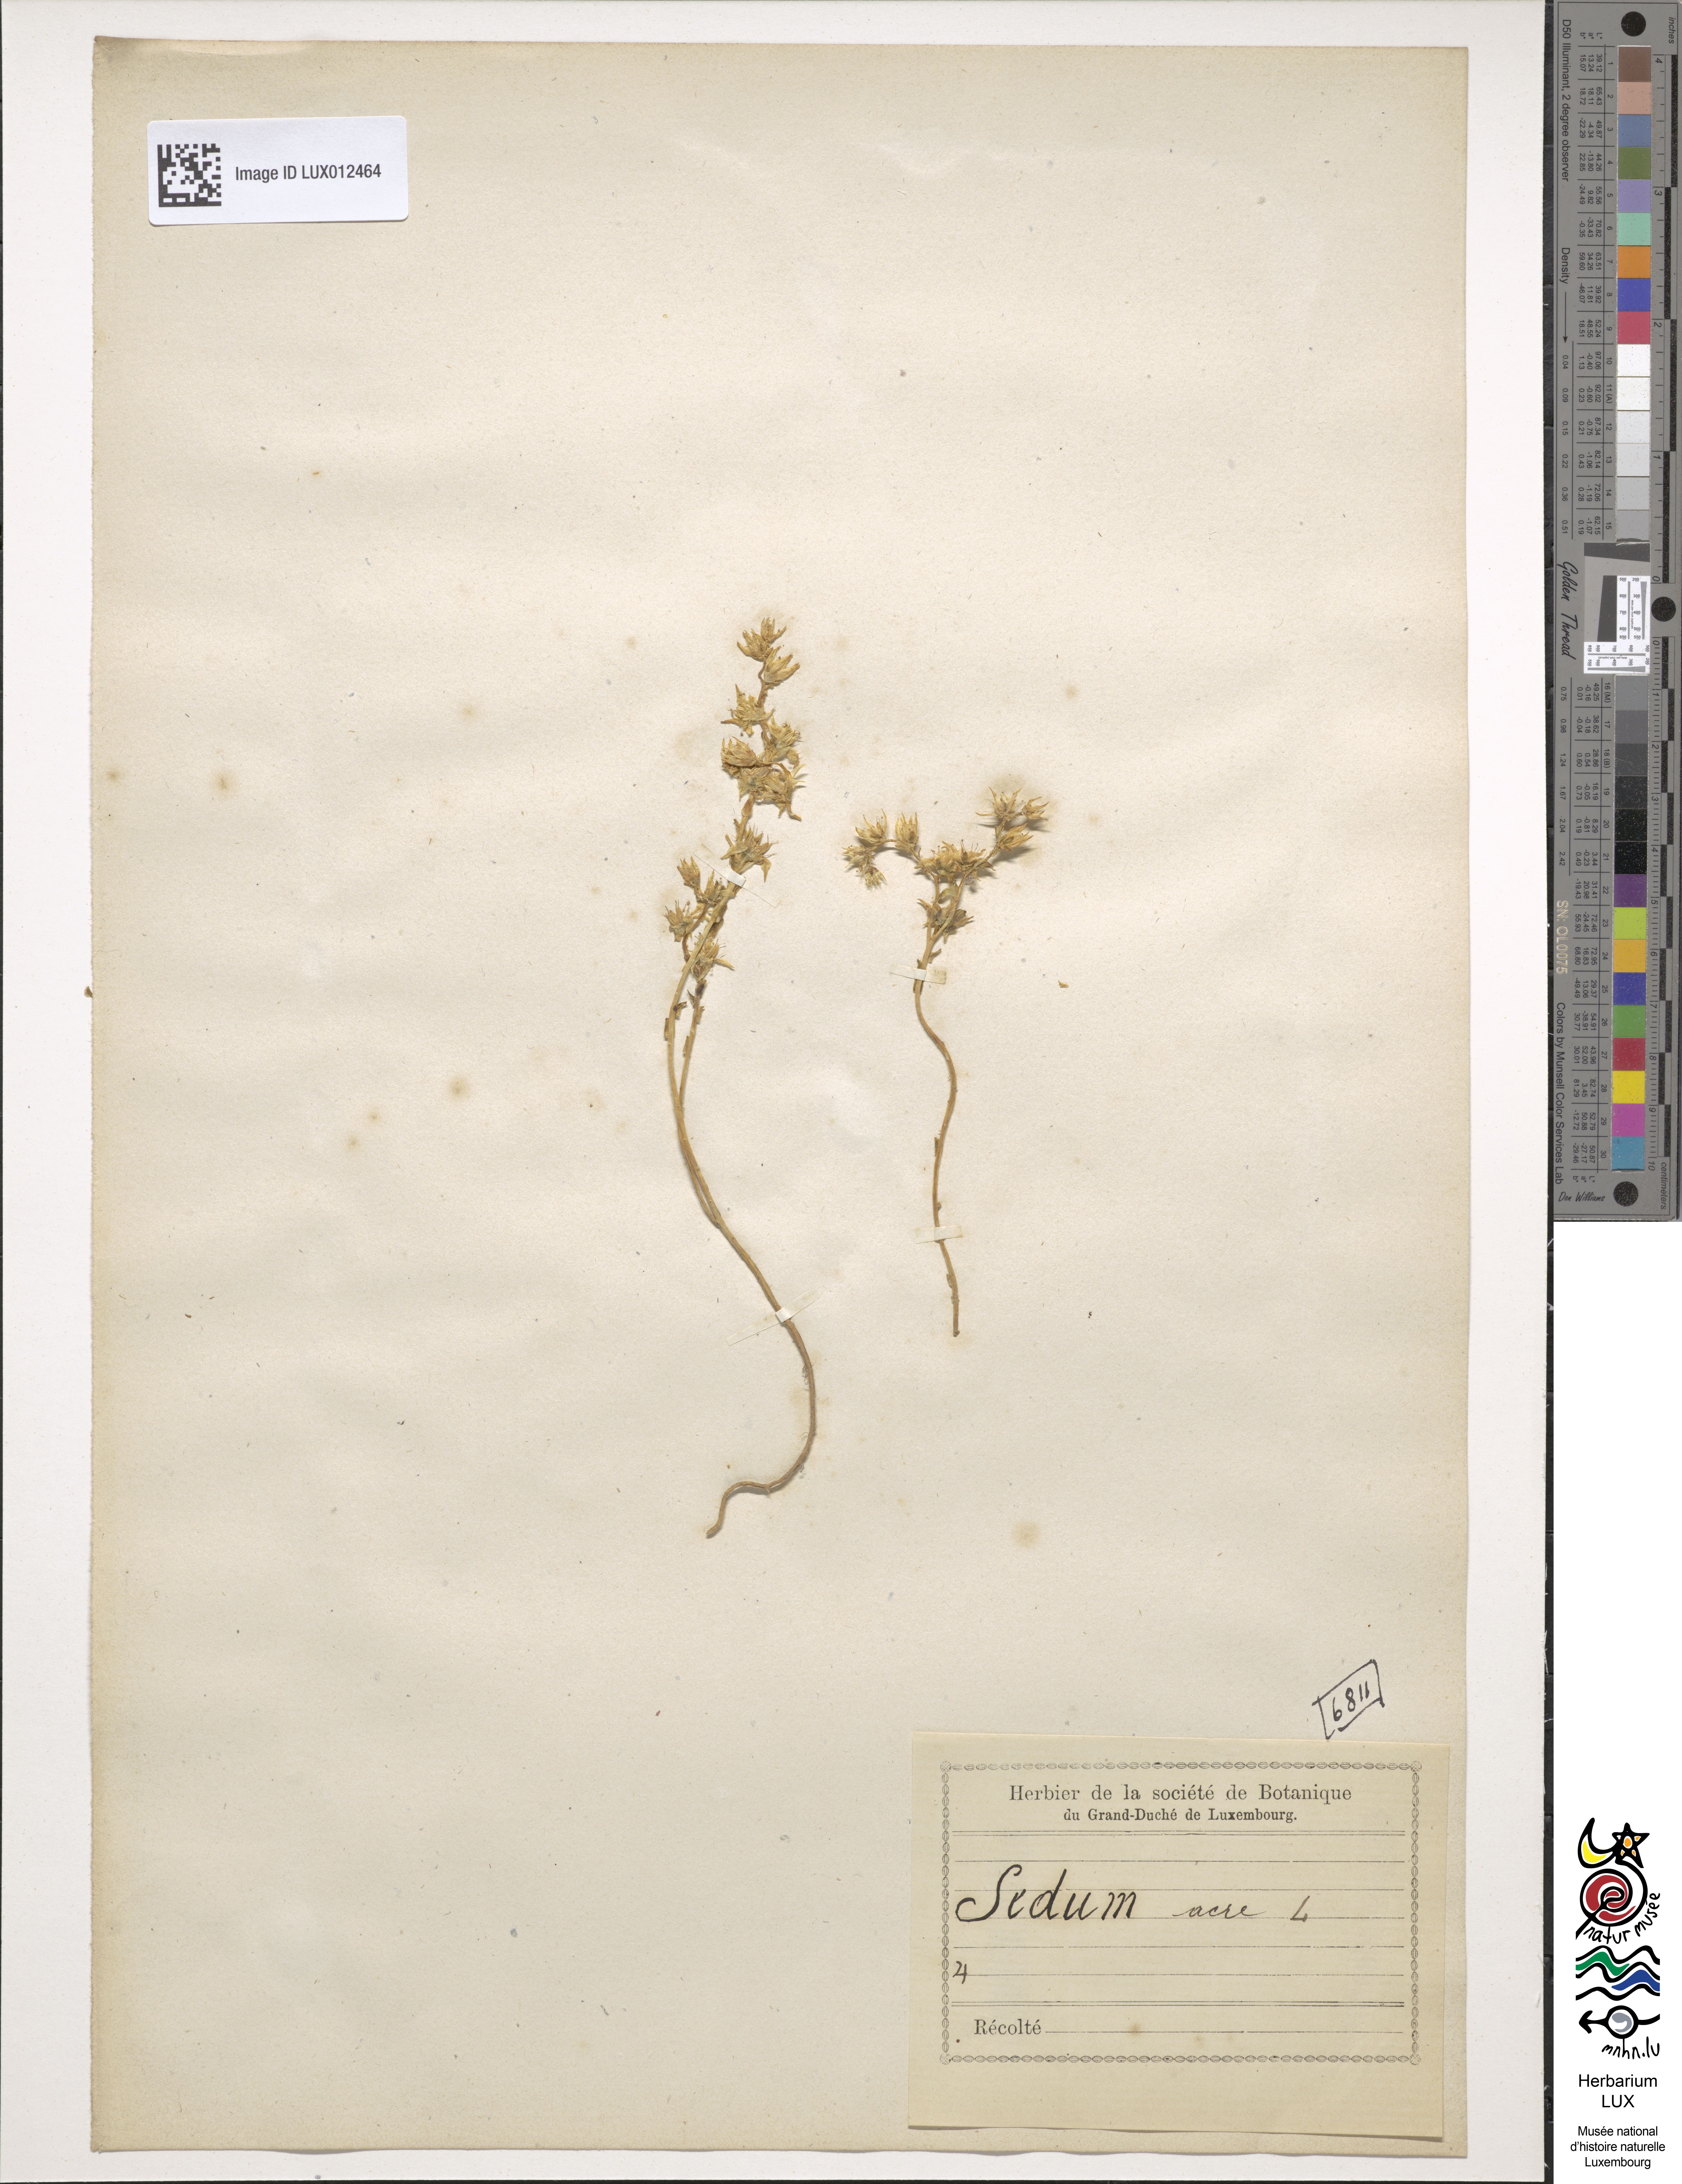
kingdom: Plantae
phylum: Tracheophyta
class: Magnoliopsida
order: Saxifragales
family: Crassulaceae
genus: Sedum
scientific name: Sedum acre
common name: Biting stonecrop
